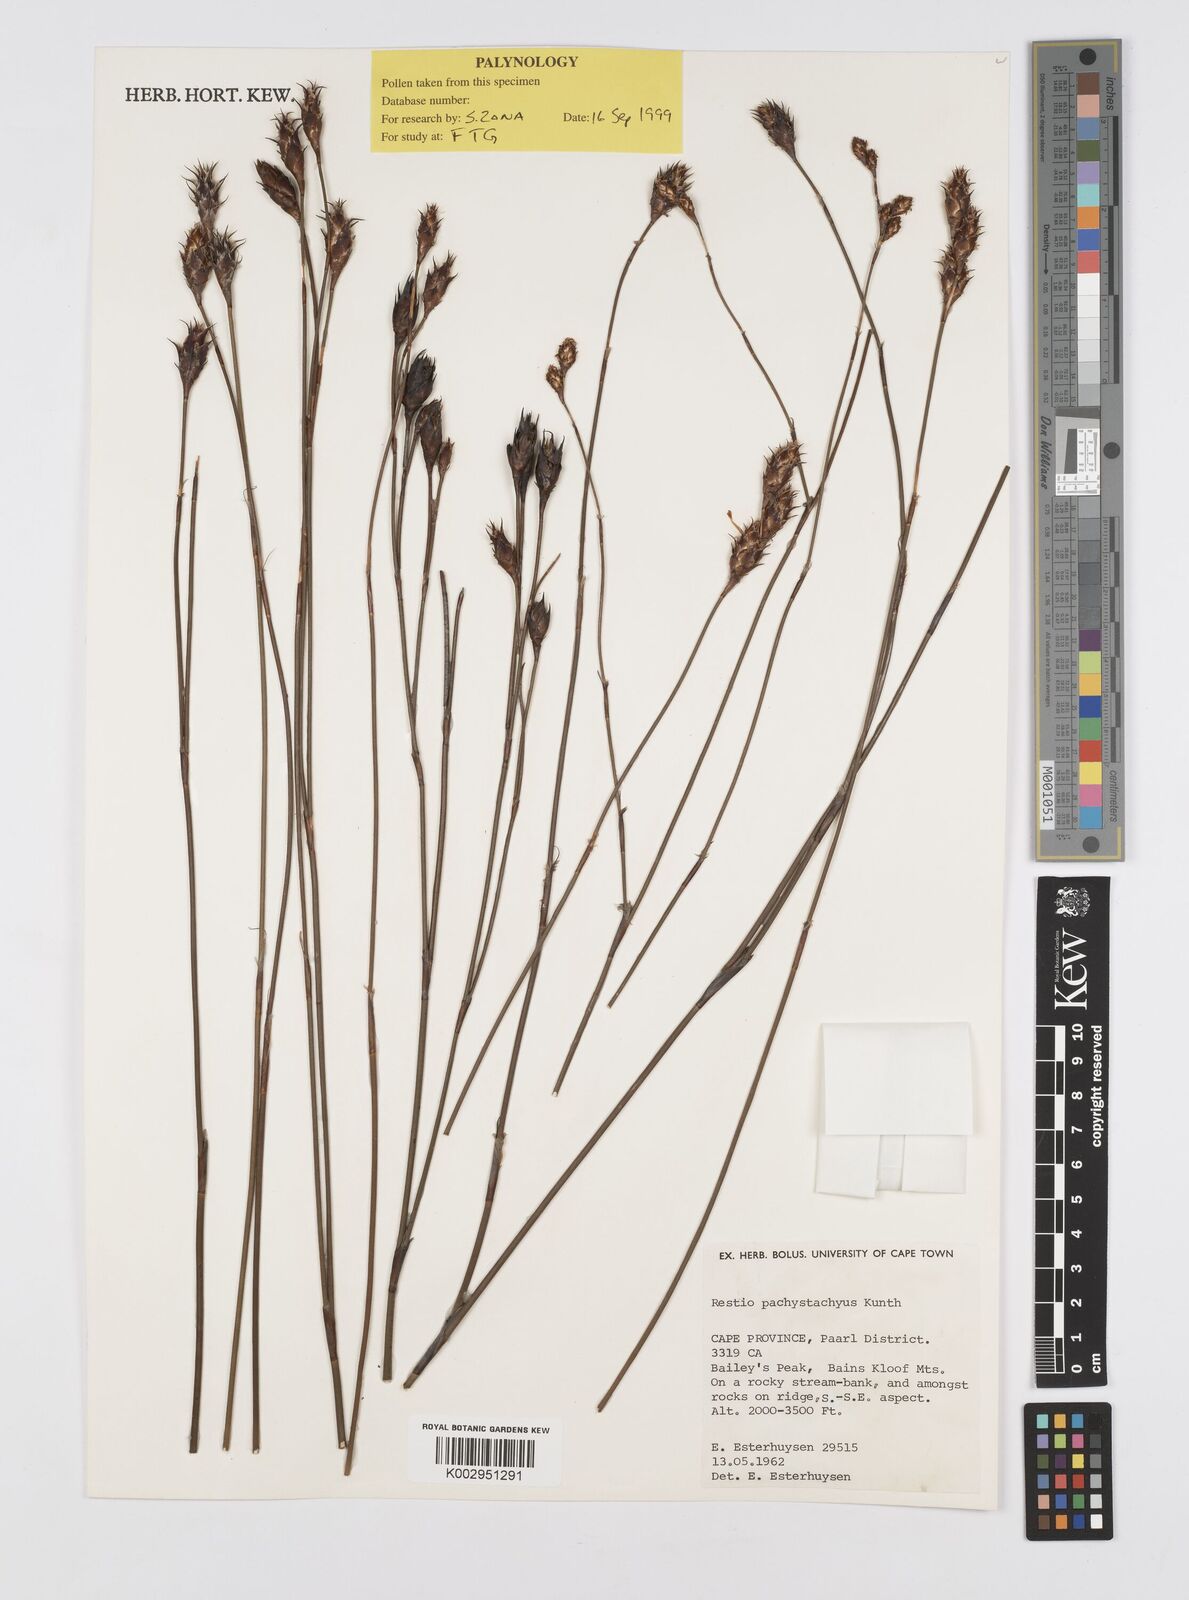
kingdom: Plantae
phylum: Tracheophyta
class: Liliopsida
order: Poales
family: Restionaceae
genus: Restio
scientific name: Restio pachystachyus
